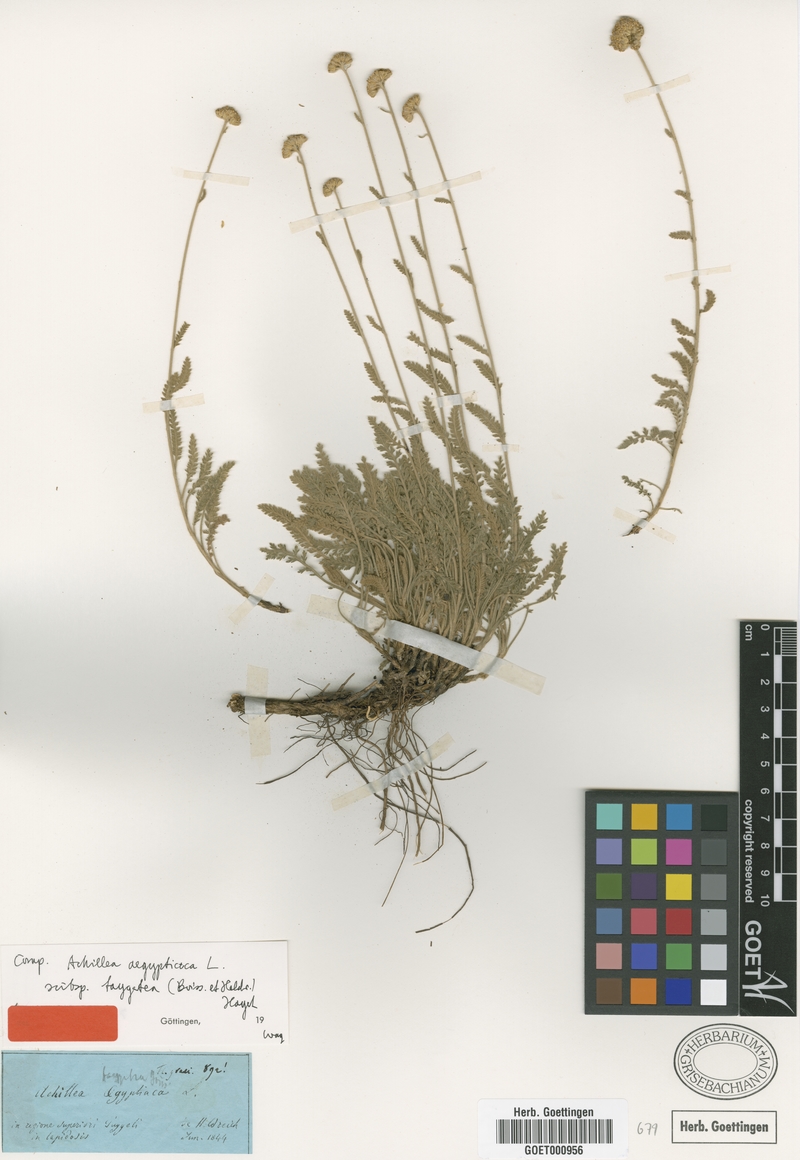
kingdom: Plantae
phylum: Tracheophyta
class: Magnoliopsida
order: Asterales
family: Asteraceae
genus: Achillea
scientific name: Achillea taygetea
